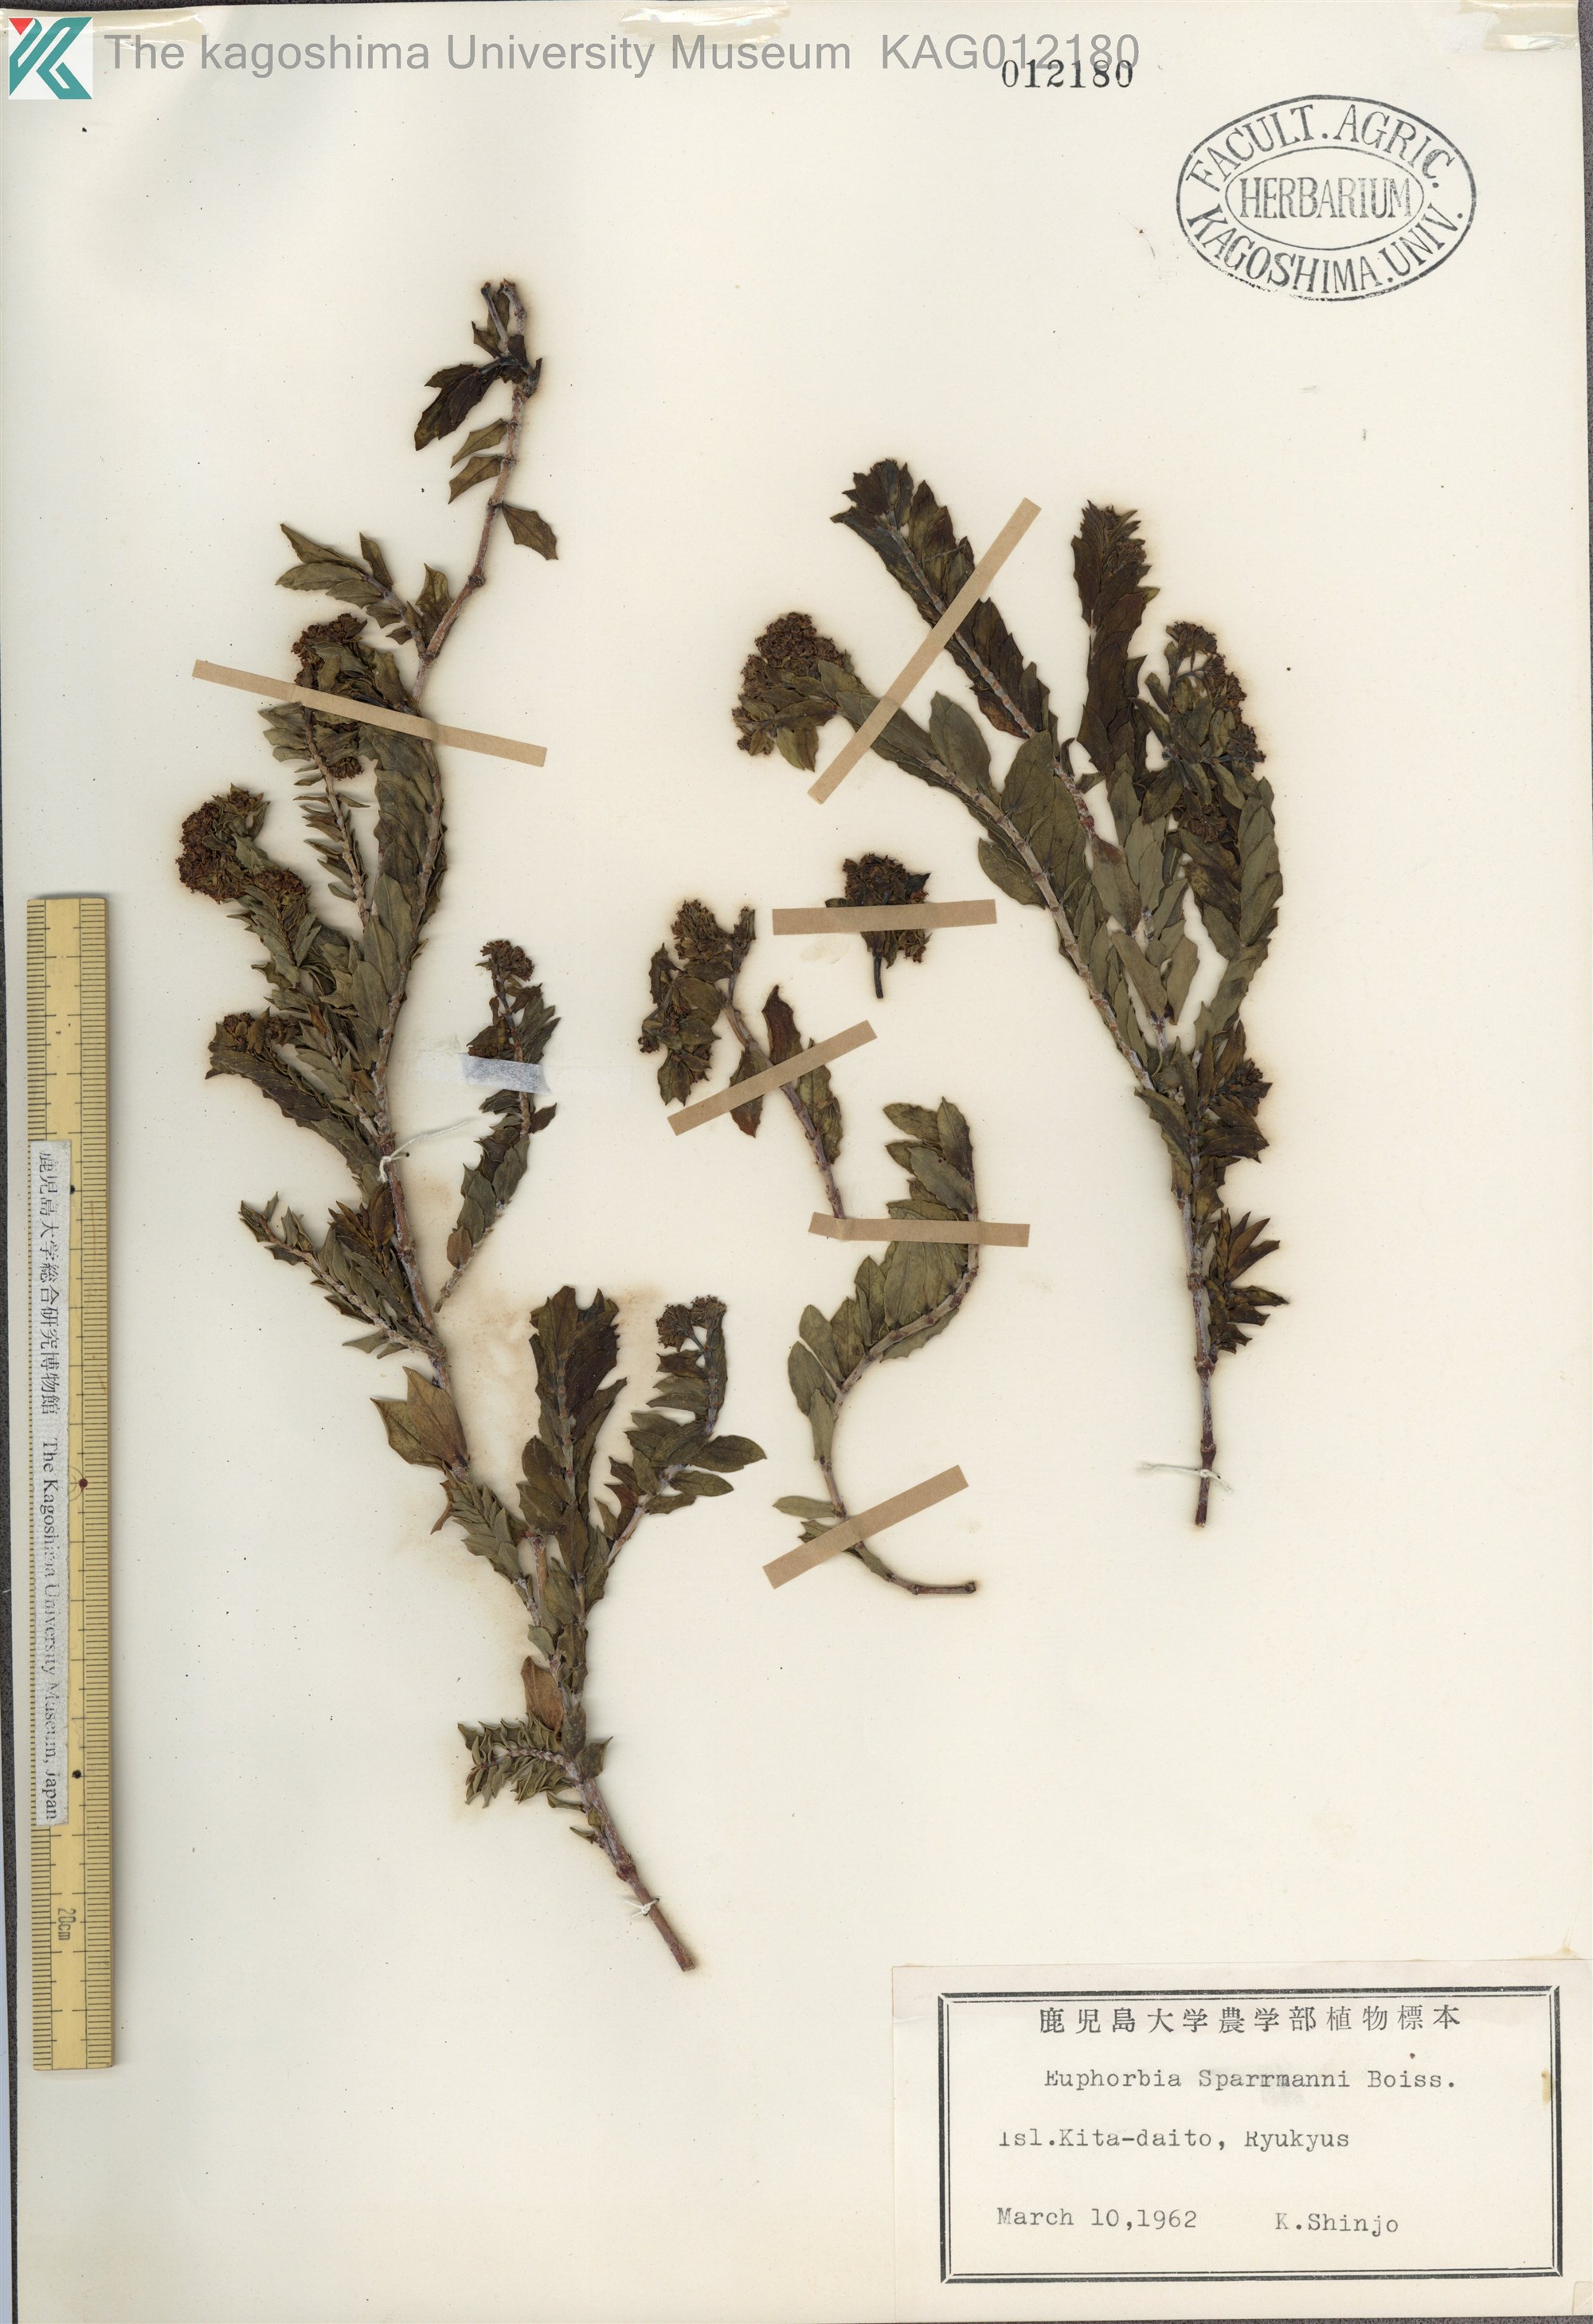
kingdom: Plantae
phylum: Tracheophyta
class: Magnoliopsida
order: Malpighiales
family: Euphorbiaceae
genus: Euphorbia
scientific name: Euphorbia sparrmanni
